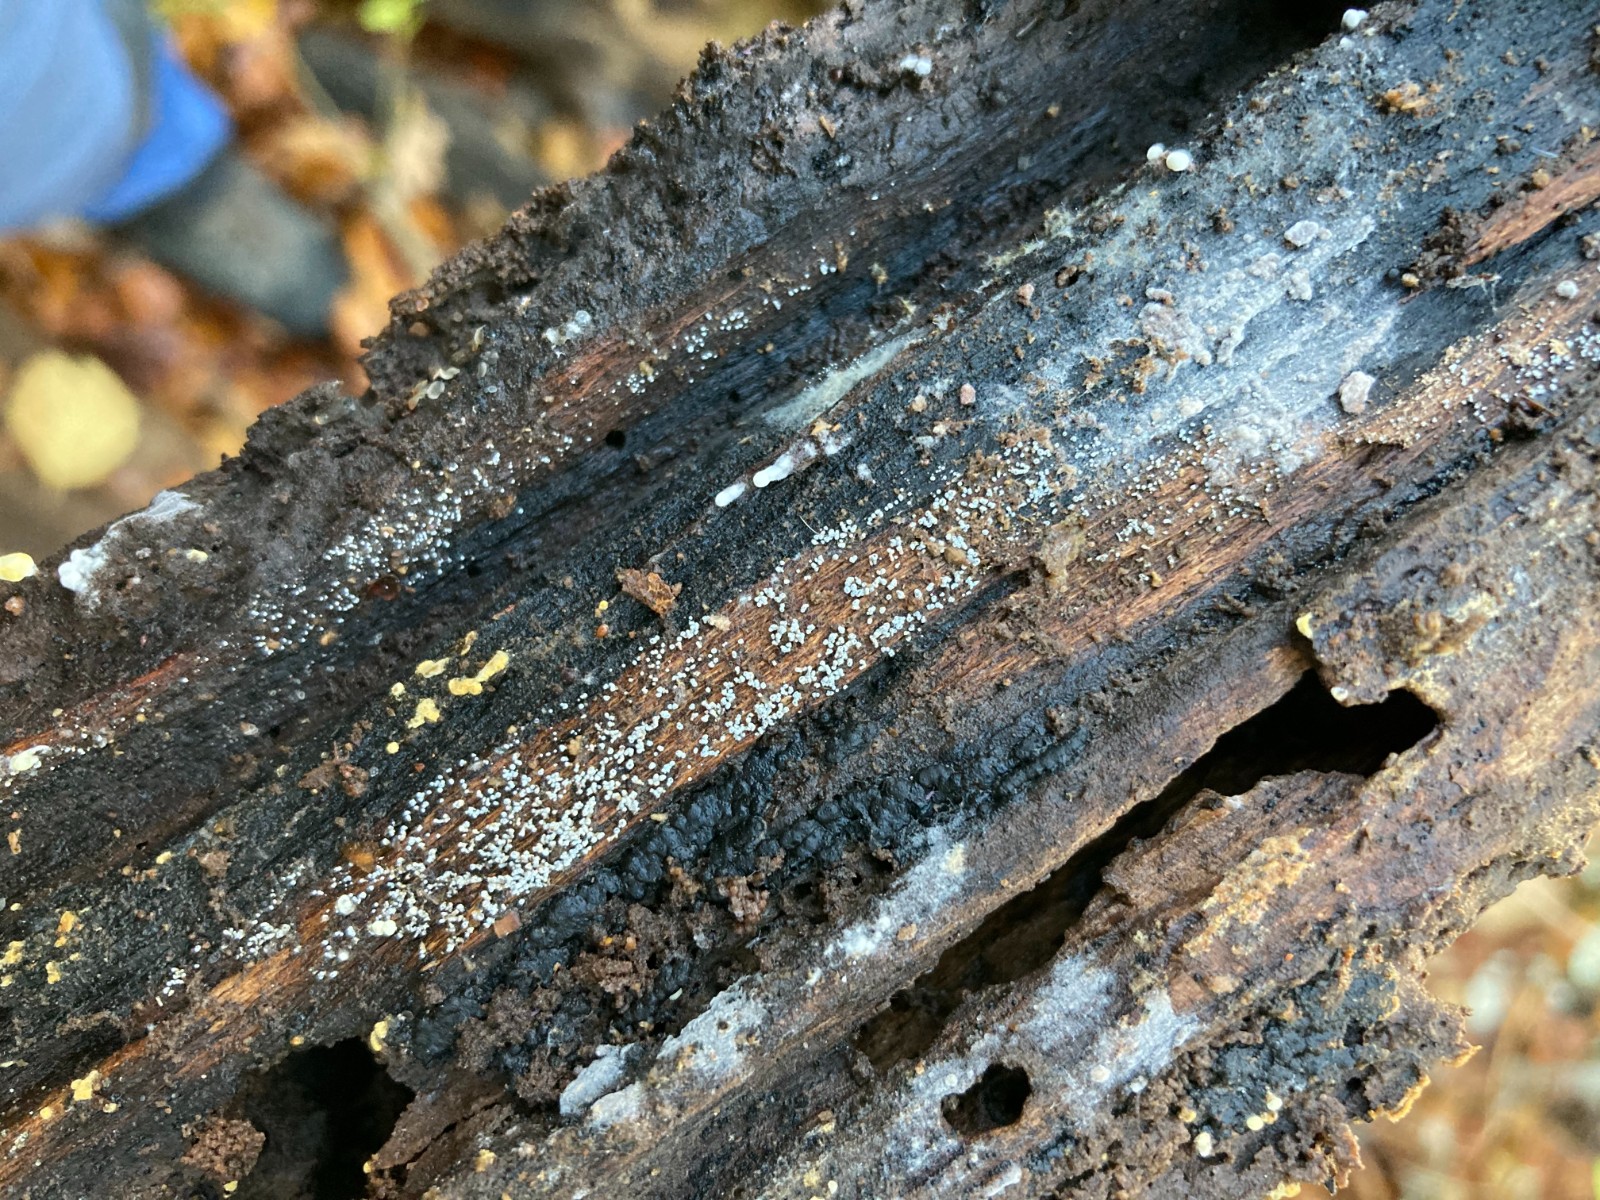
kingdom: Fungi
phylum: Ascomycota
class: Leotiomycetes
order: Helotiales
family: Lachnaceae
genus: Proliferodiscus
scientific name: Proliferodiscus pulveraceus
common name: askegrå frynseskive
